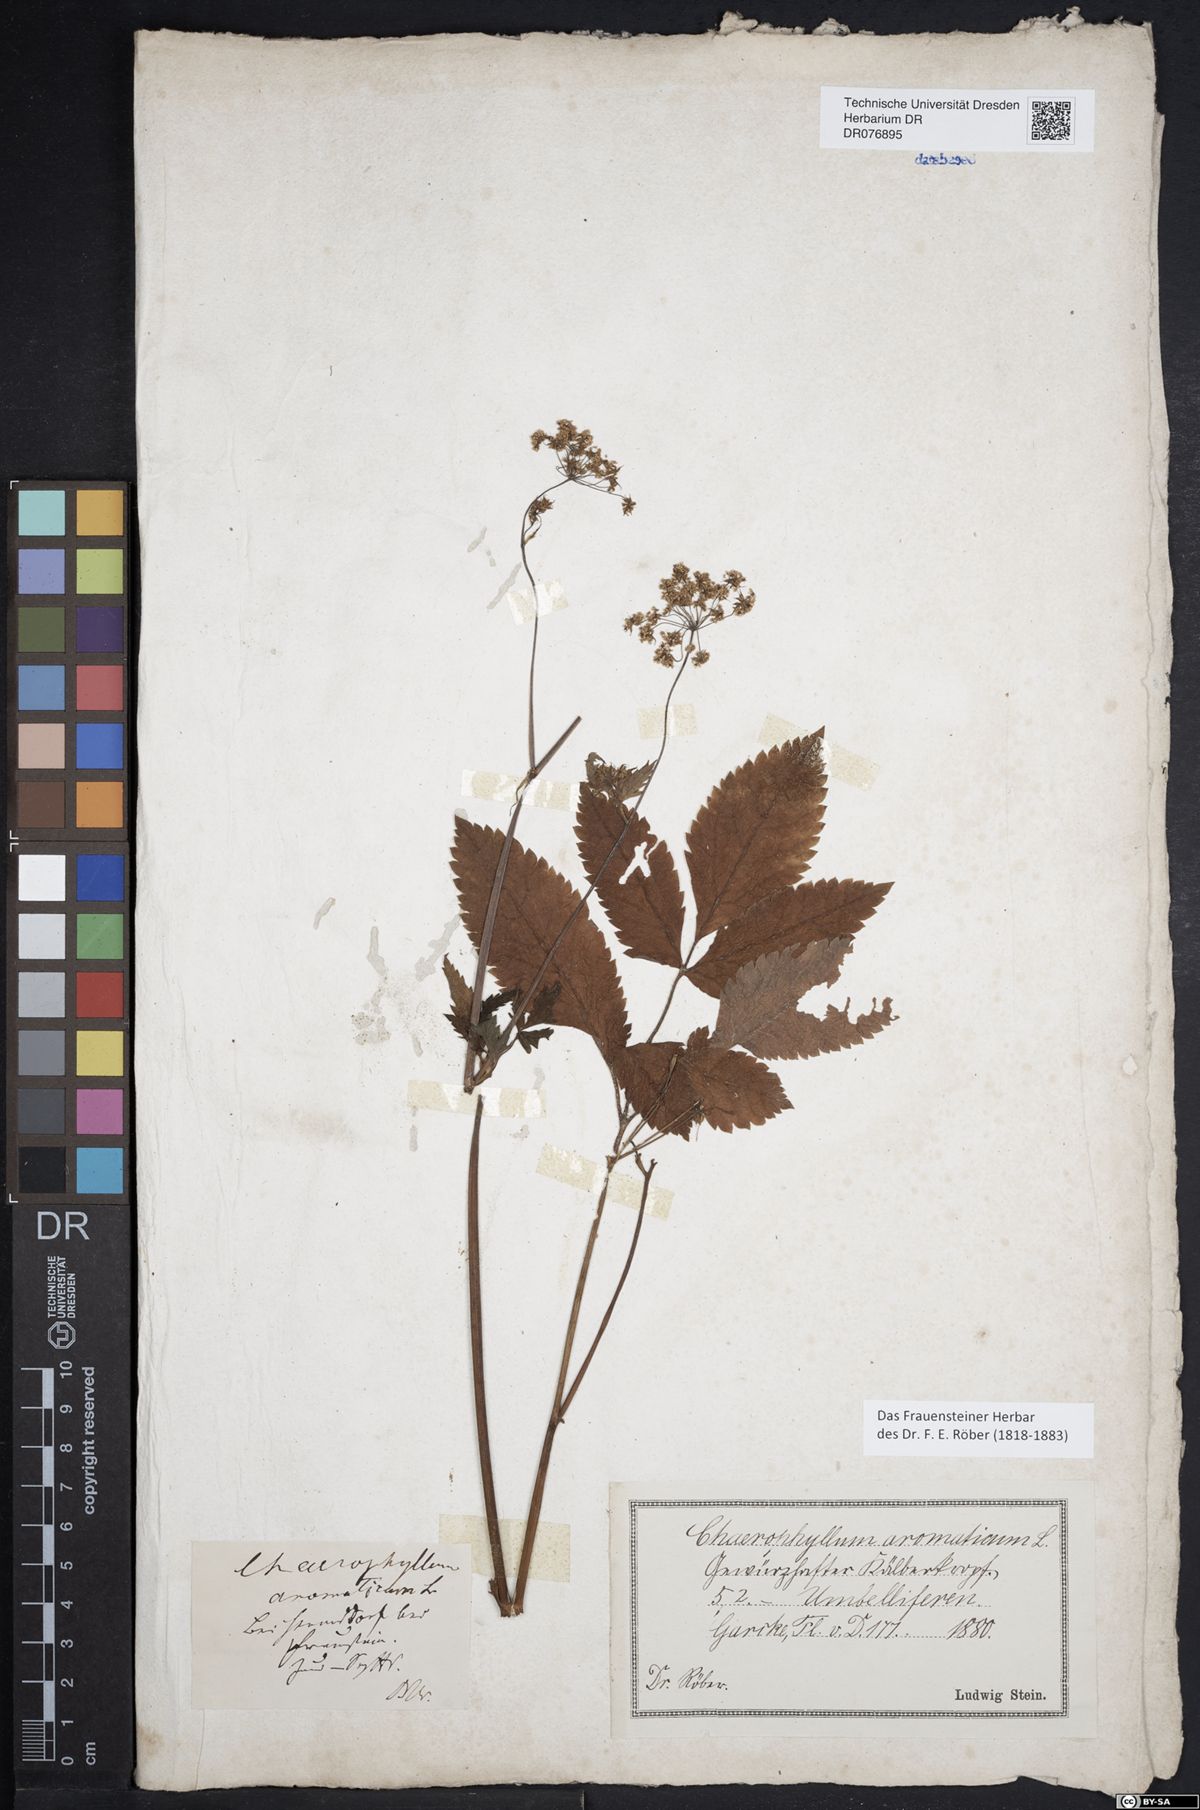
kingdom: Plantae
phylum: Tracheophyta
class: Magnoliopsida
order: Apiales
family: Apiaceae
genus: Chaerophyllum
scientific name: Chaerophyllum aromaticum
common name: Broadleaf chervil
